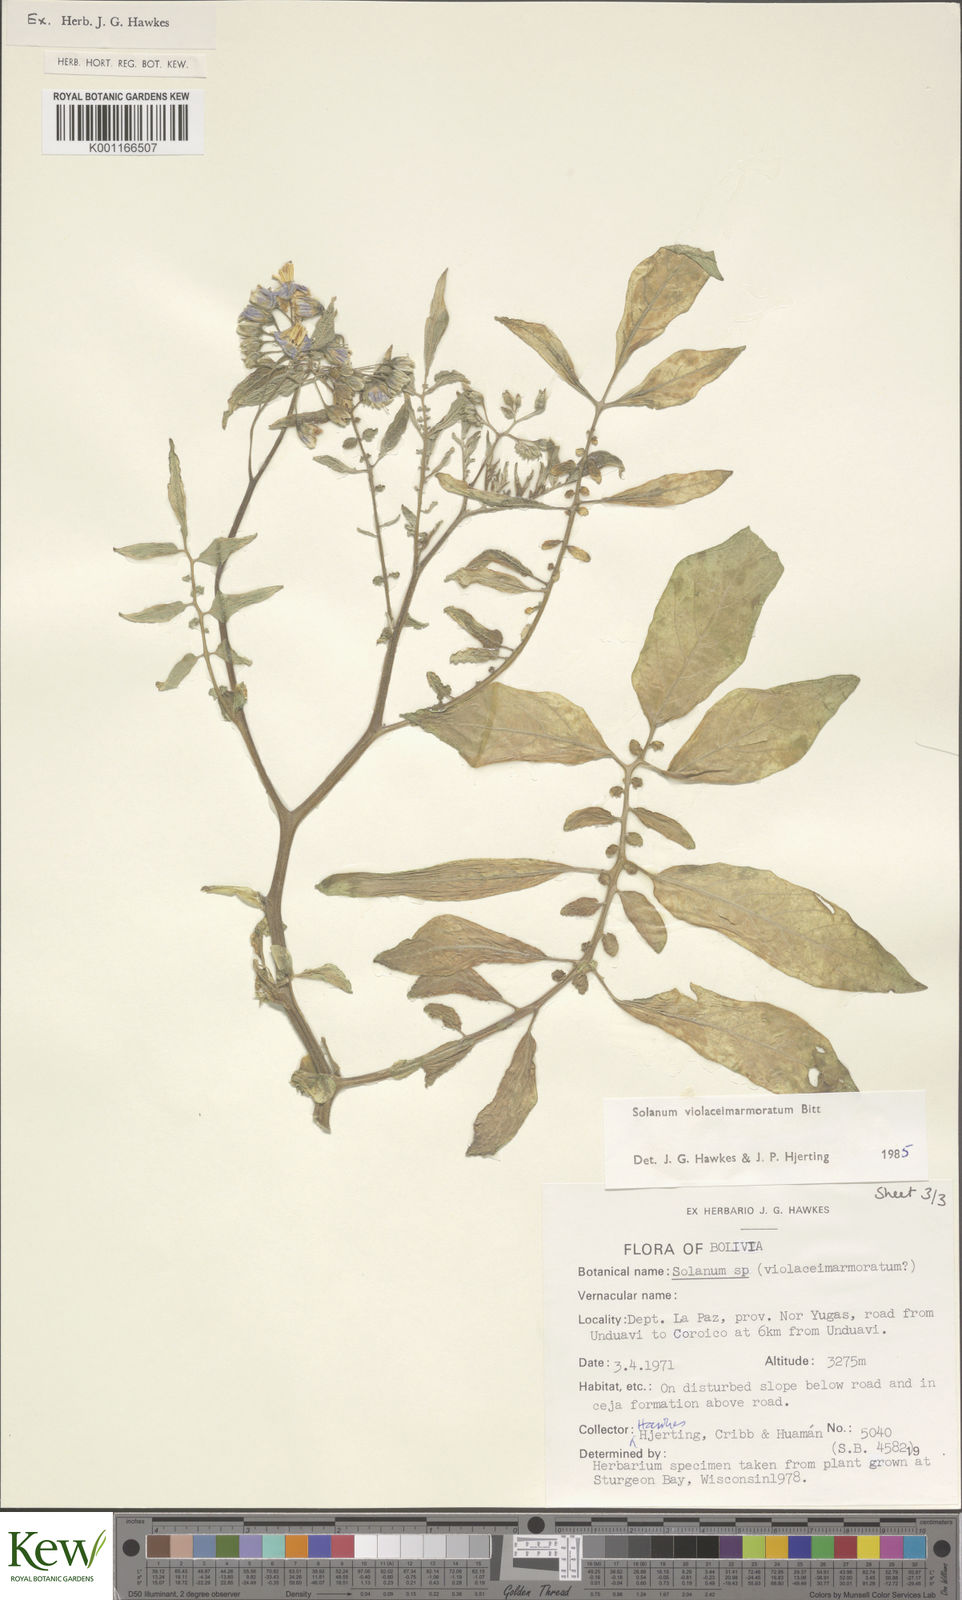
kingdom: Plantae
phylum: Tracheophyta
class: Magnoliopsida
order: Solanales
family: Solanaceae
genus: Solanum
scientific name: Solanum violaceimarmoratum
